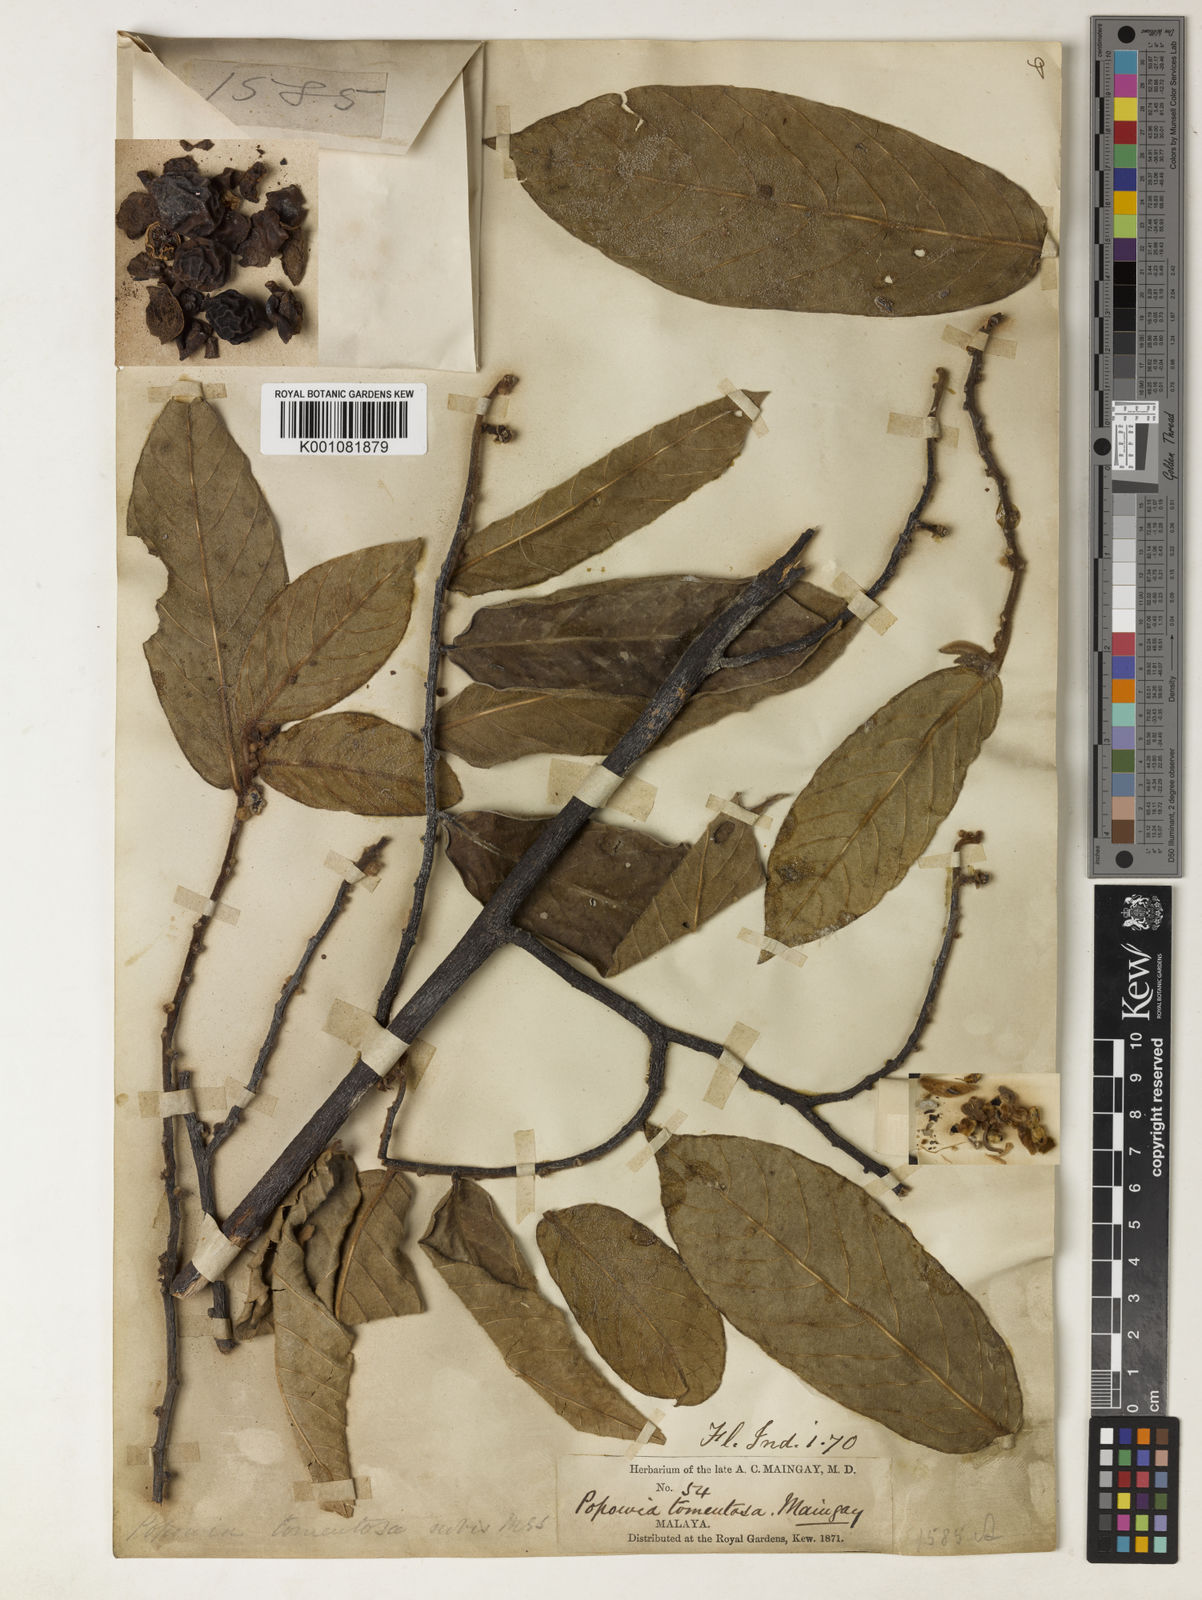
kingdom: Plantae
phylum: Tracheophyta
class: Magnoliopsida
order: Magnoliales
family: Annonaceae
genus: Popowia
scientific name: Popowia tomentosa
